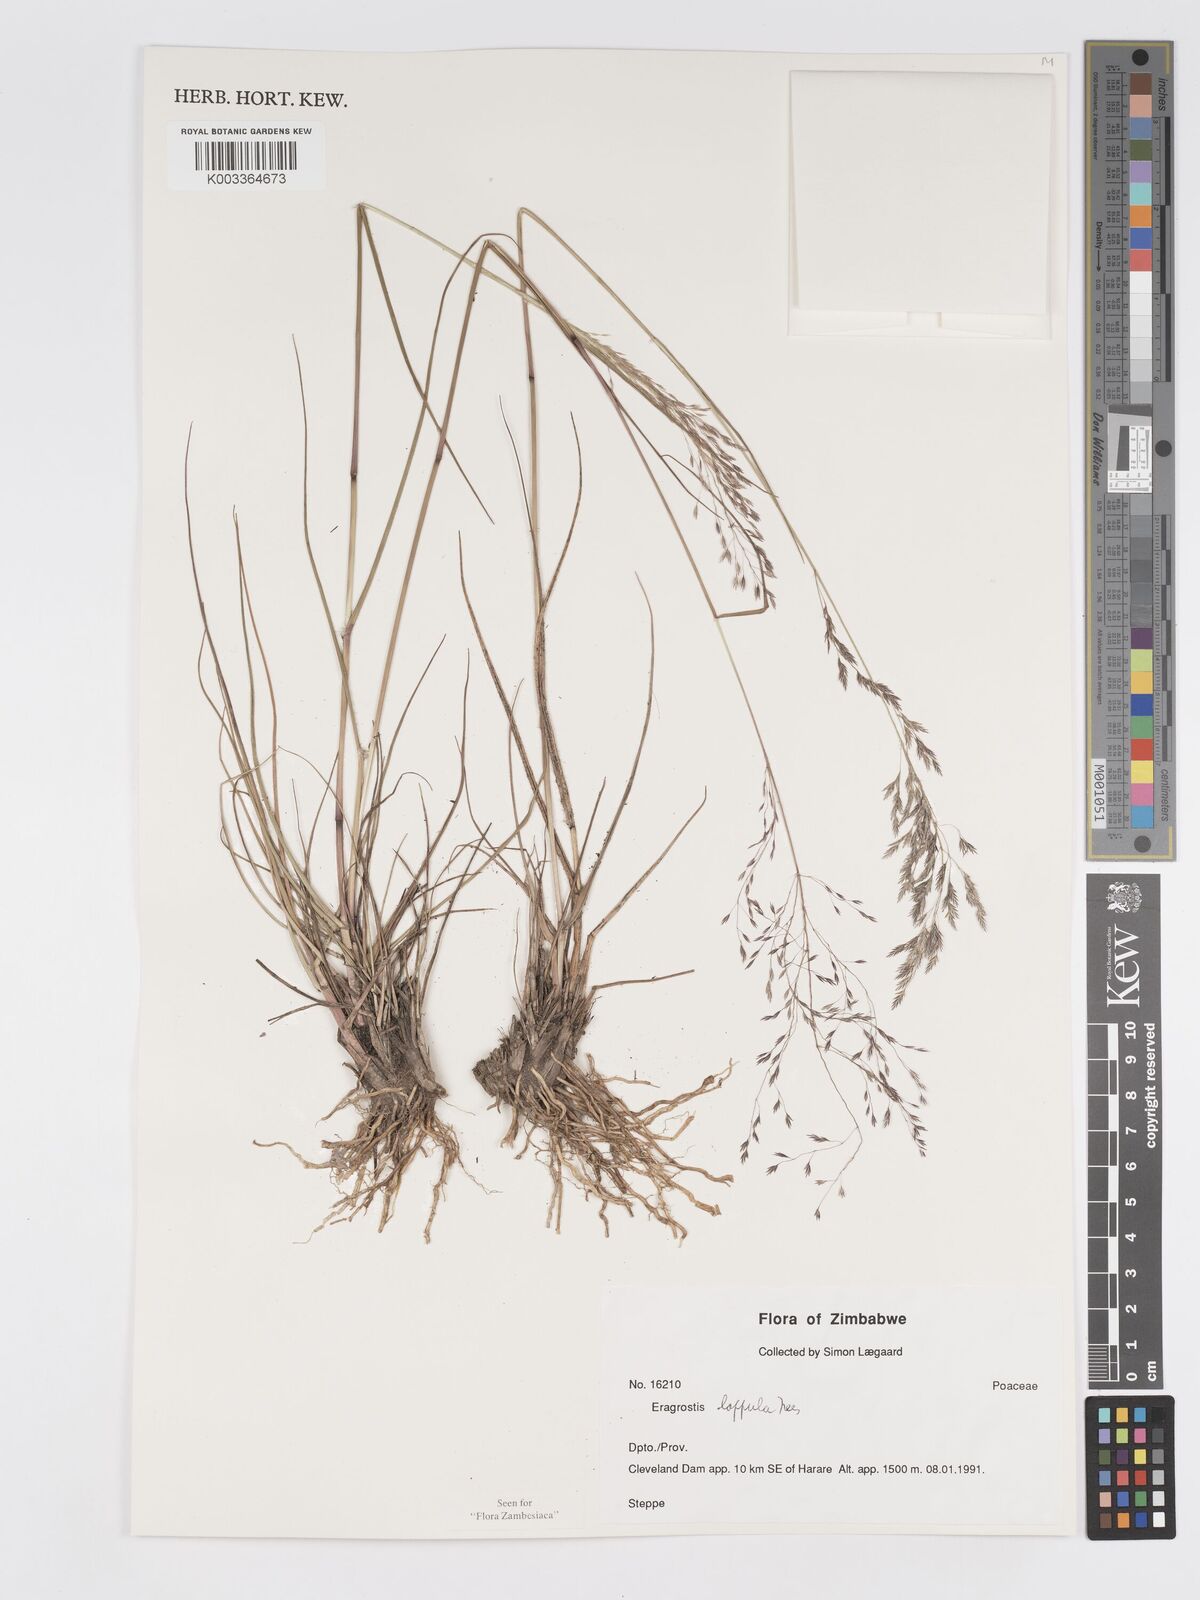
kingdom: Plantae
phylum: Tracheophyta
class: Liliopsida
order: Poales
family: Poaceae
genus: Eragrostis
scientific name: Eragrostis lappula
